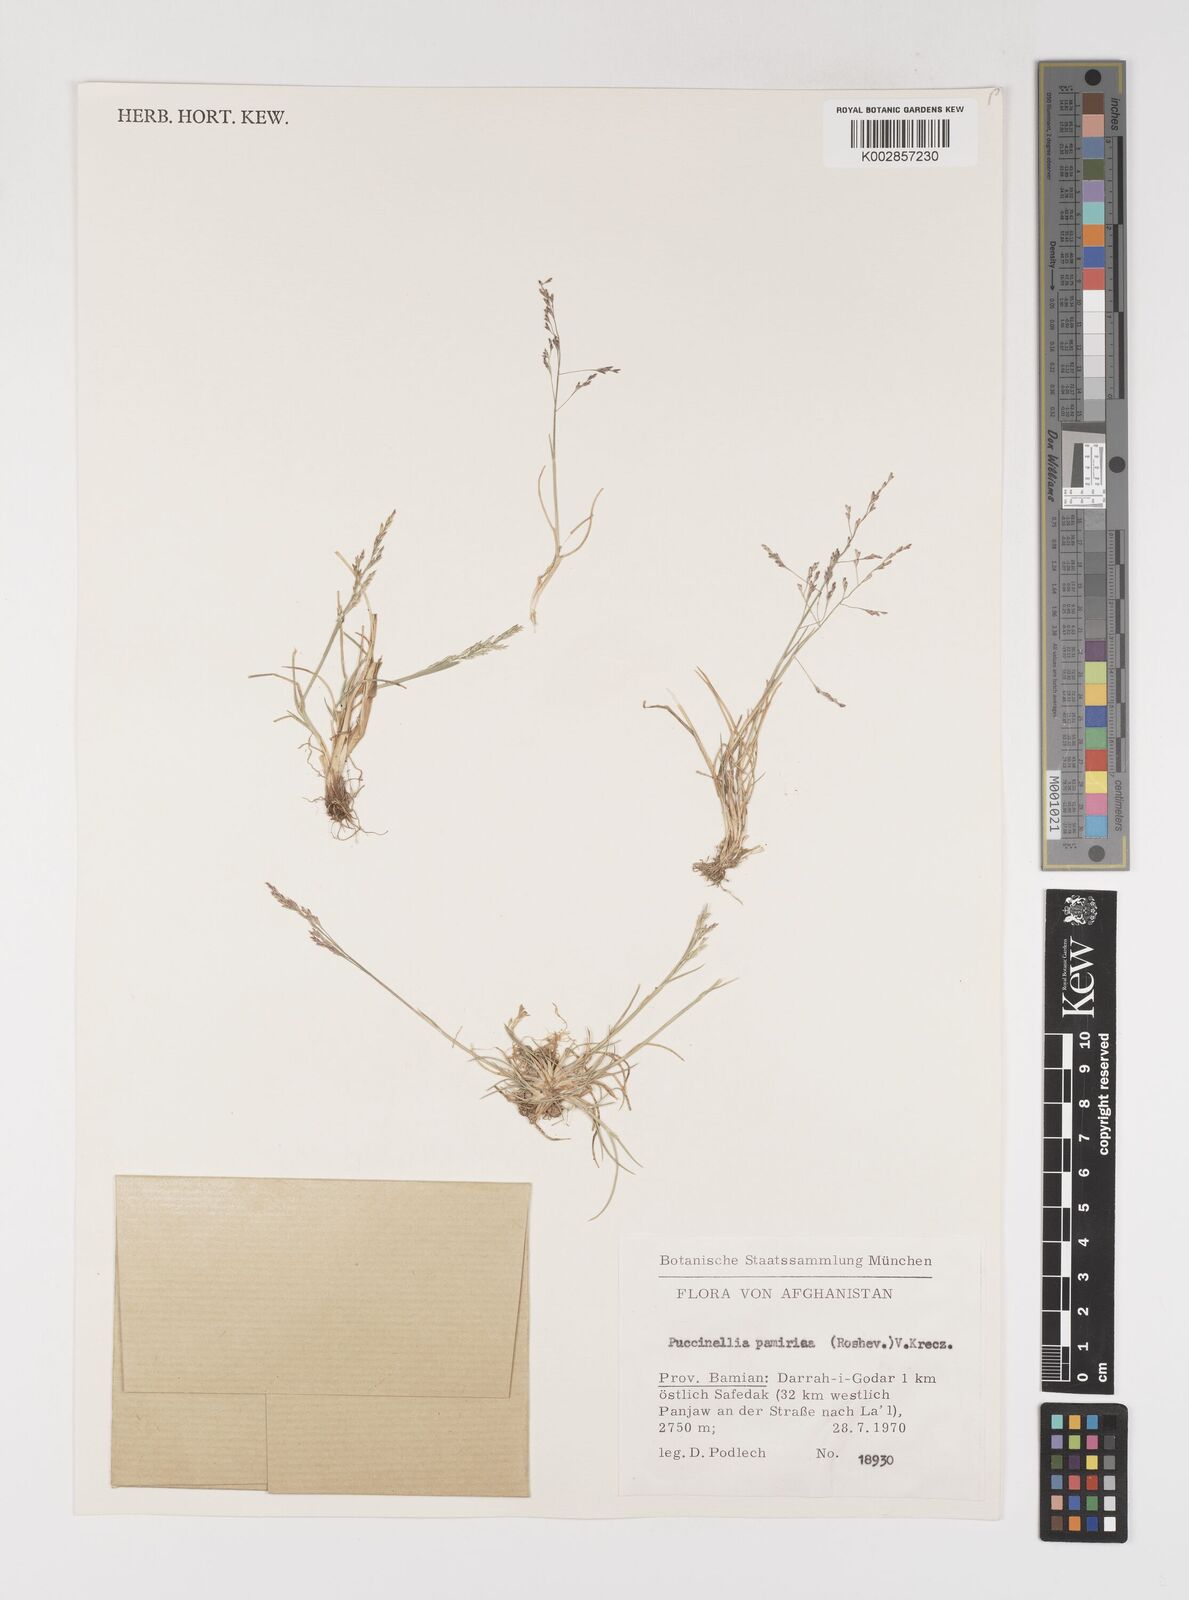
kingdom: Plantae
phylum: Tracheophyta
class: Liliopsida
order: Poales
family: Poaceae
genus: Puccinellia
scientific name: Puccinellia pamirica
